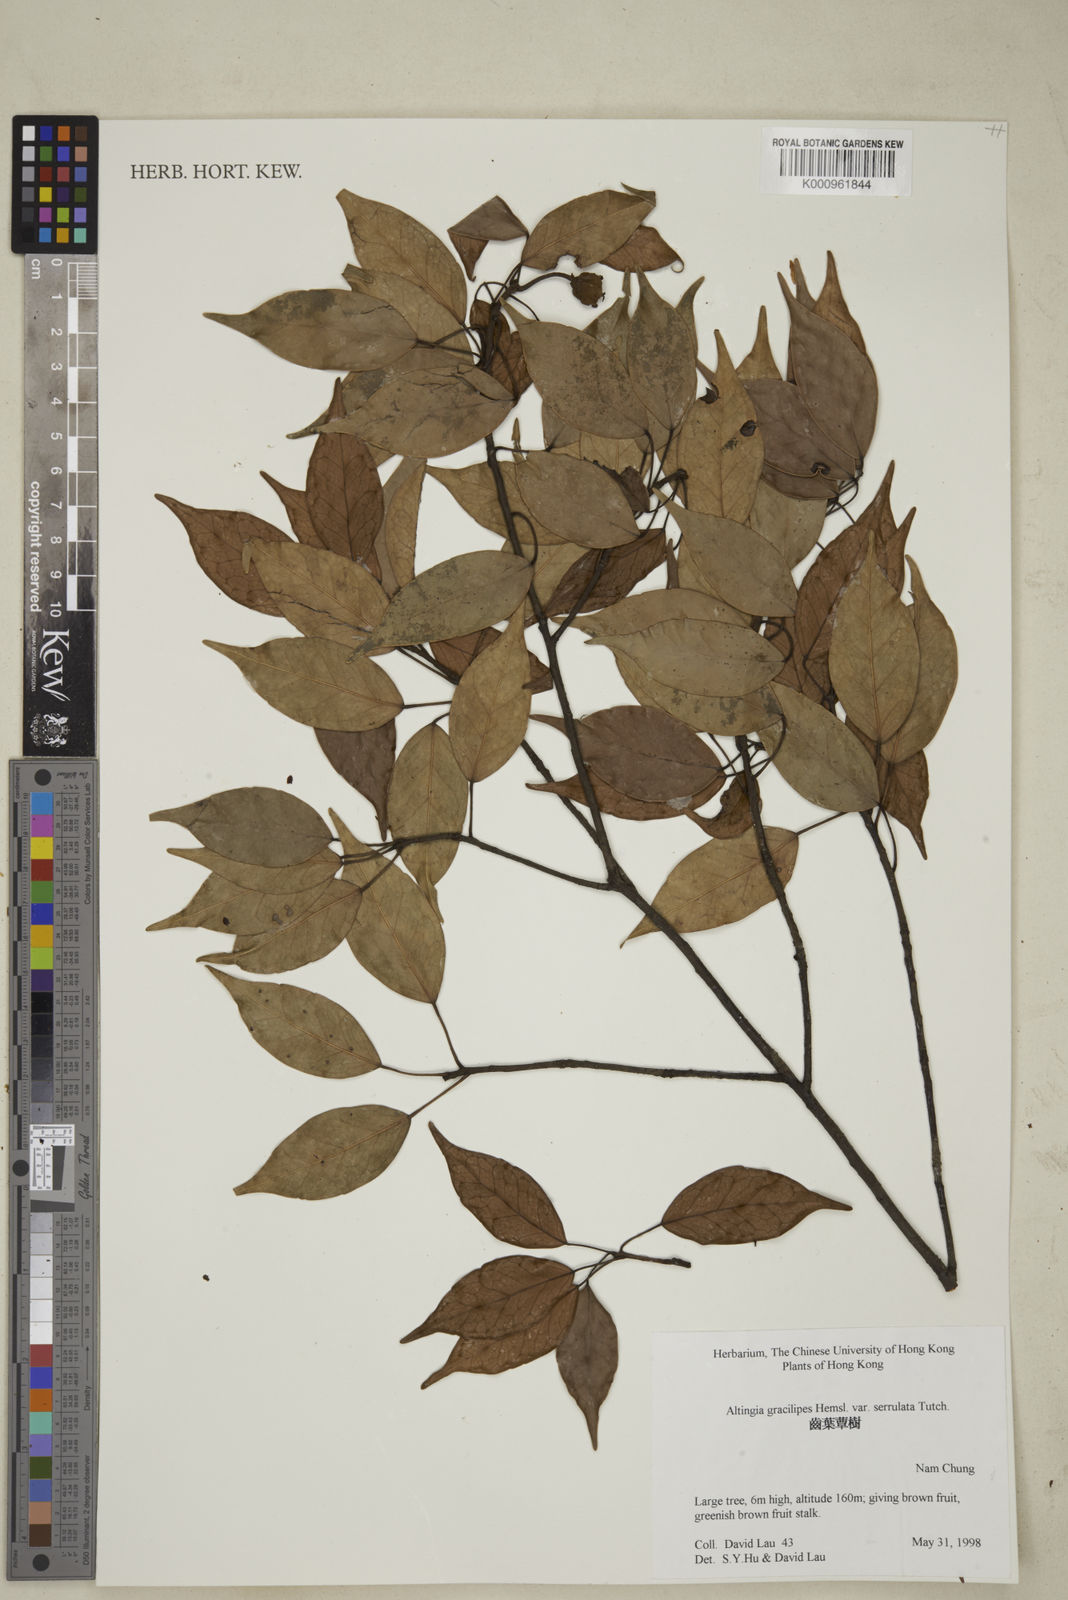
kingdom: Plantae
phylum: Tracheophyta
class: Magnoliopsida
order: Saxifragales
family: Altingiaceae
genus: Liquidambar
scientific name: Liquidambar gracilipes
